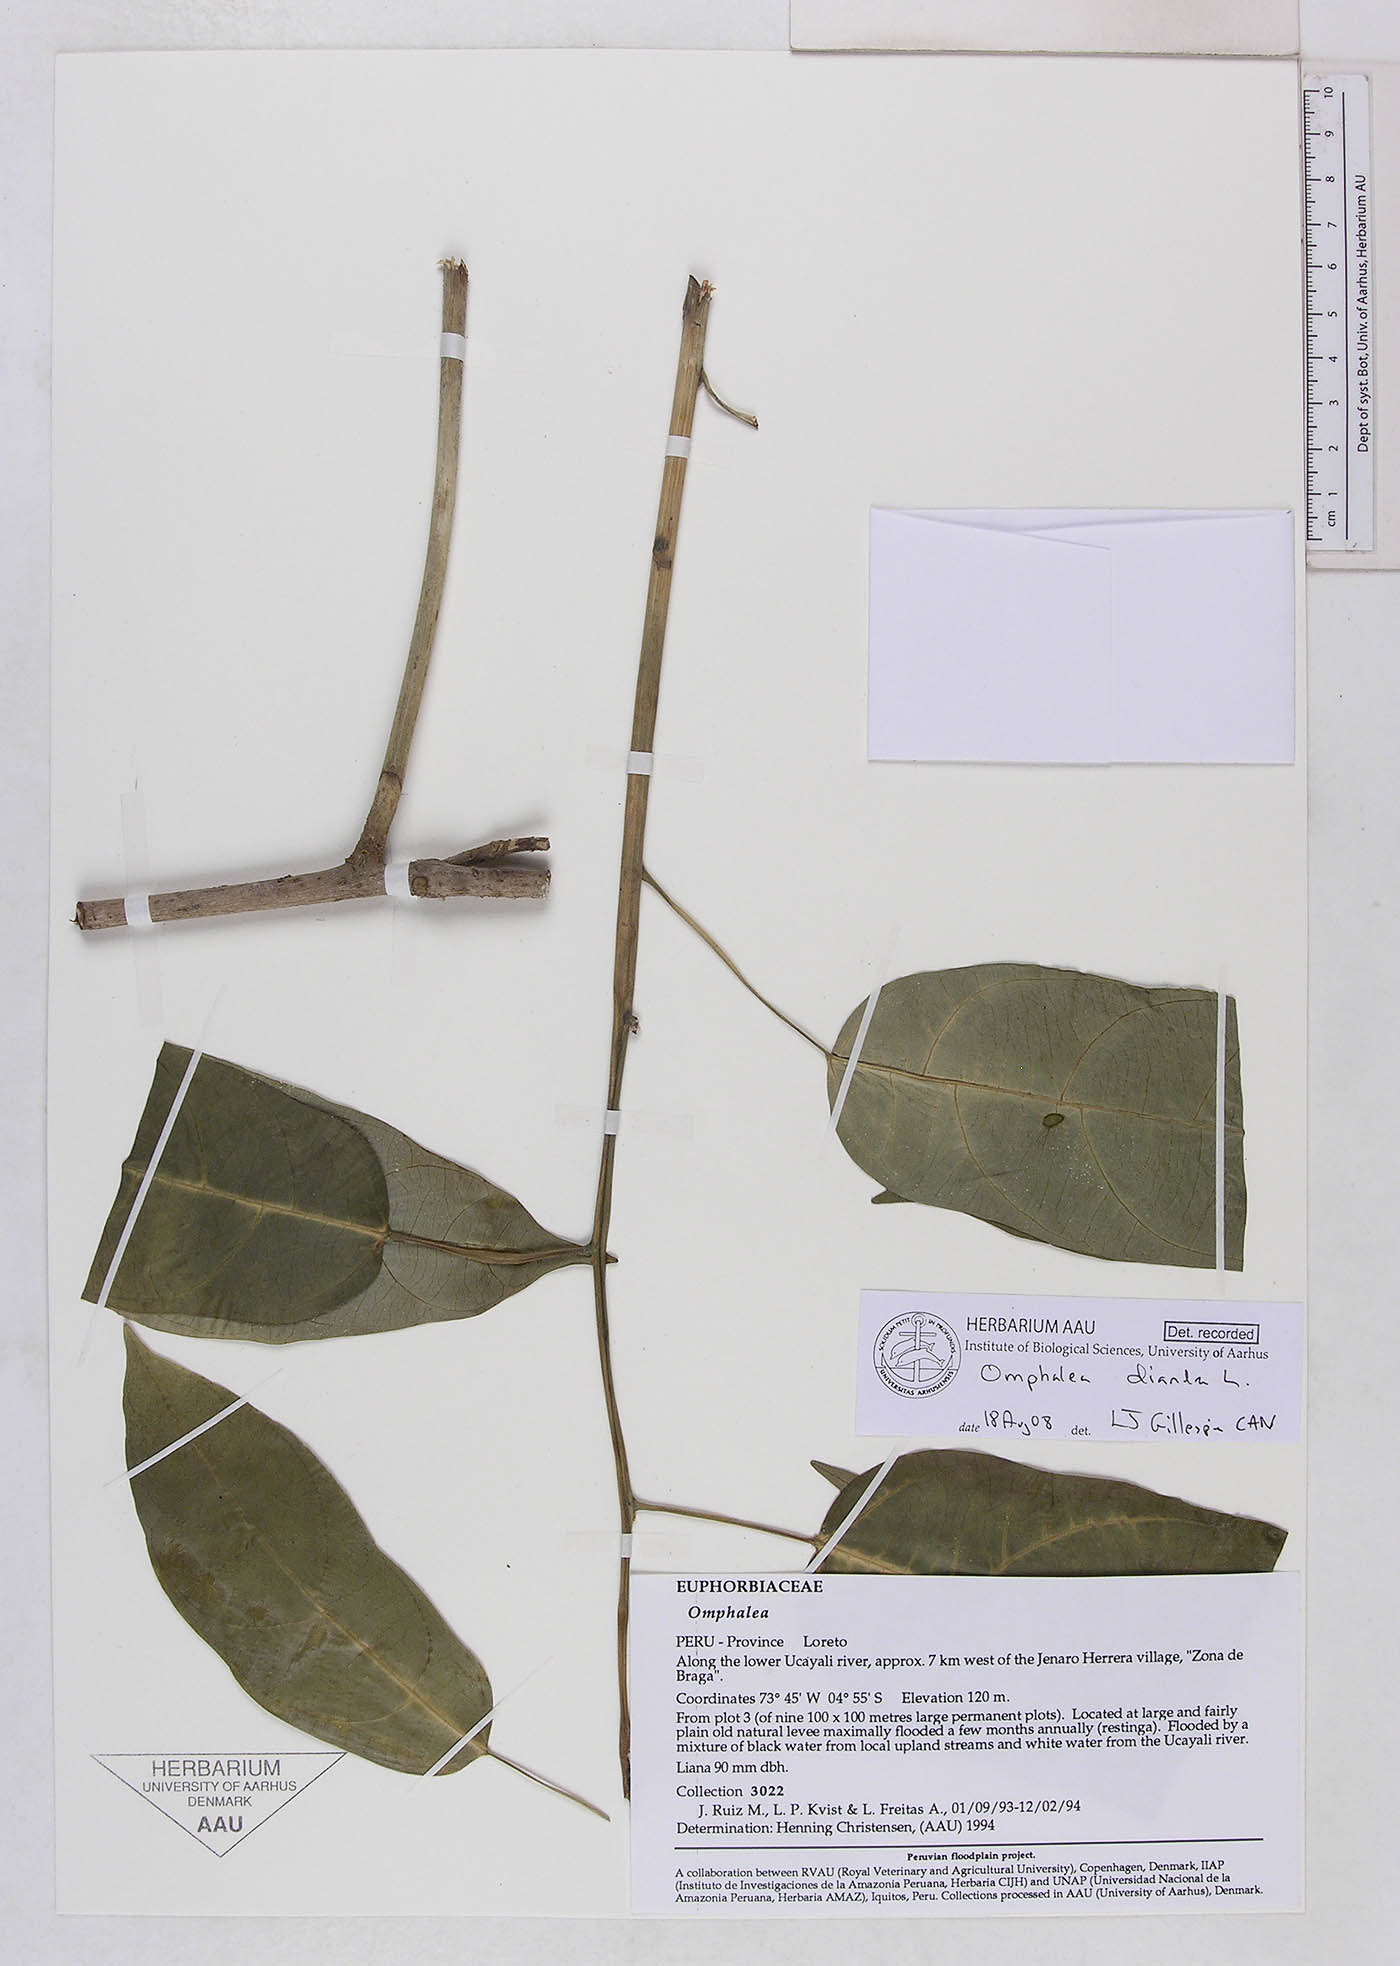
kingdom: Plantae
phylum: Tracheophyta
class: Magnoliopsida
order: Malpighiales
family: Euphorbiaceae
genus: Omphalea
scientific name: Omphalea diandra
